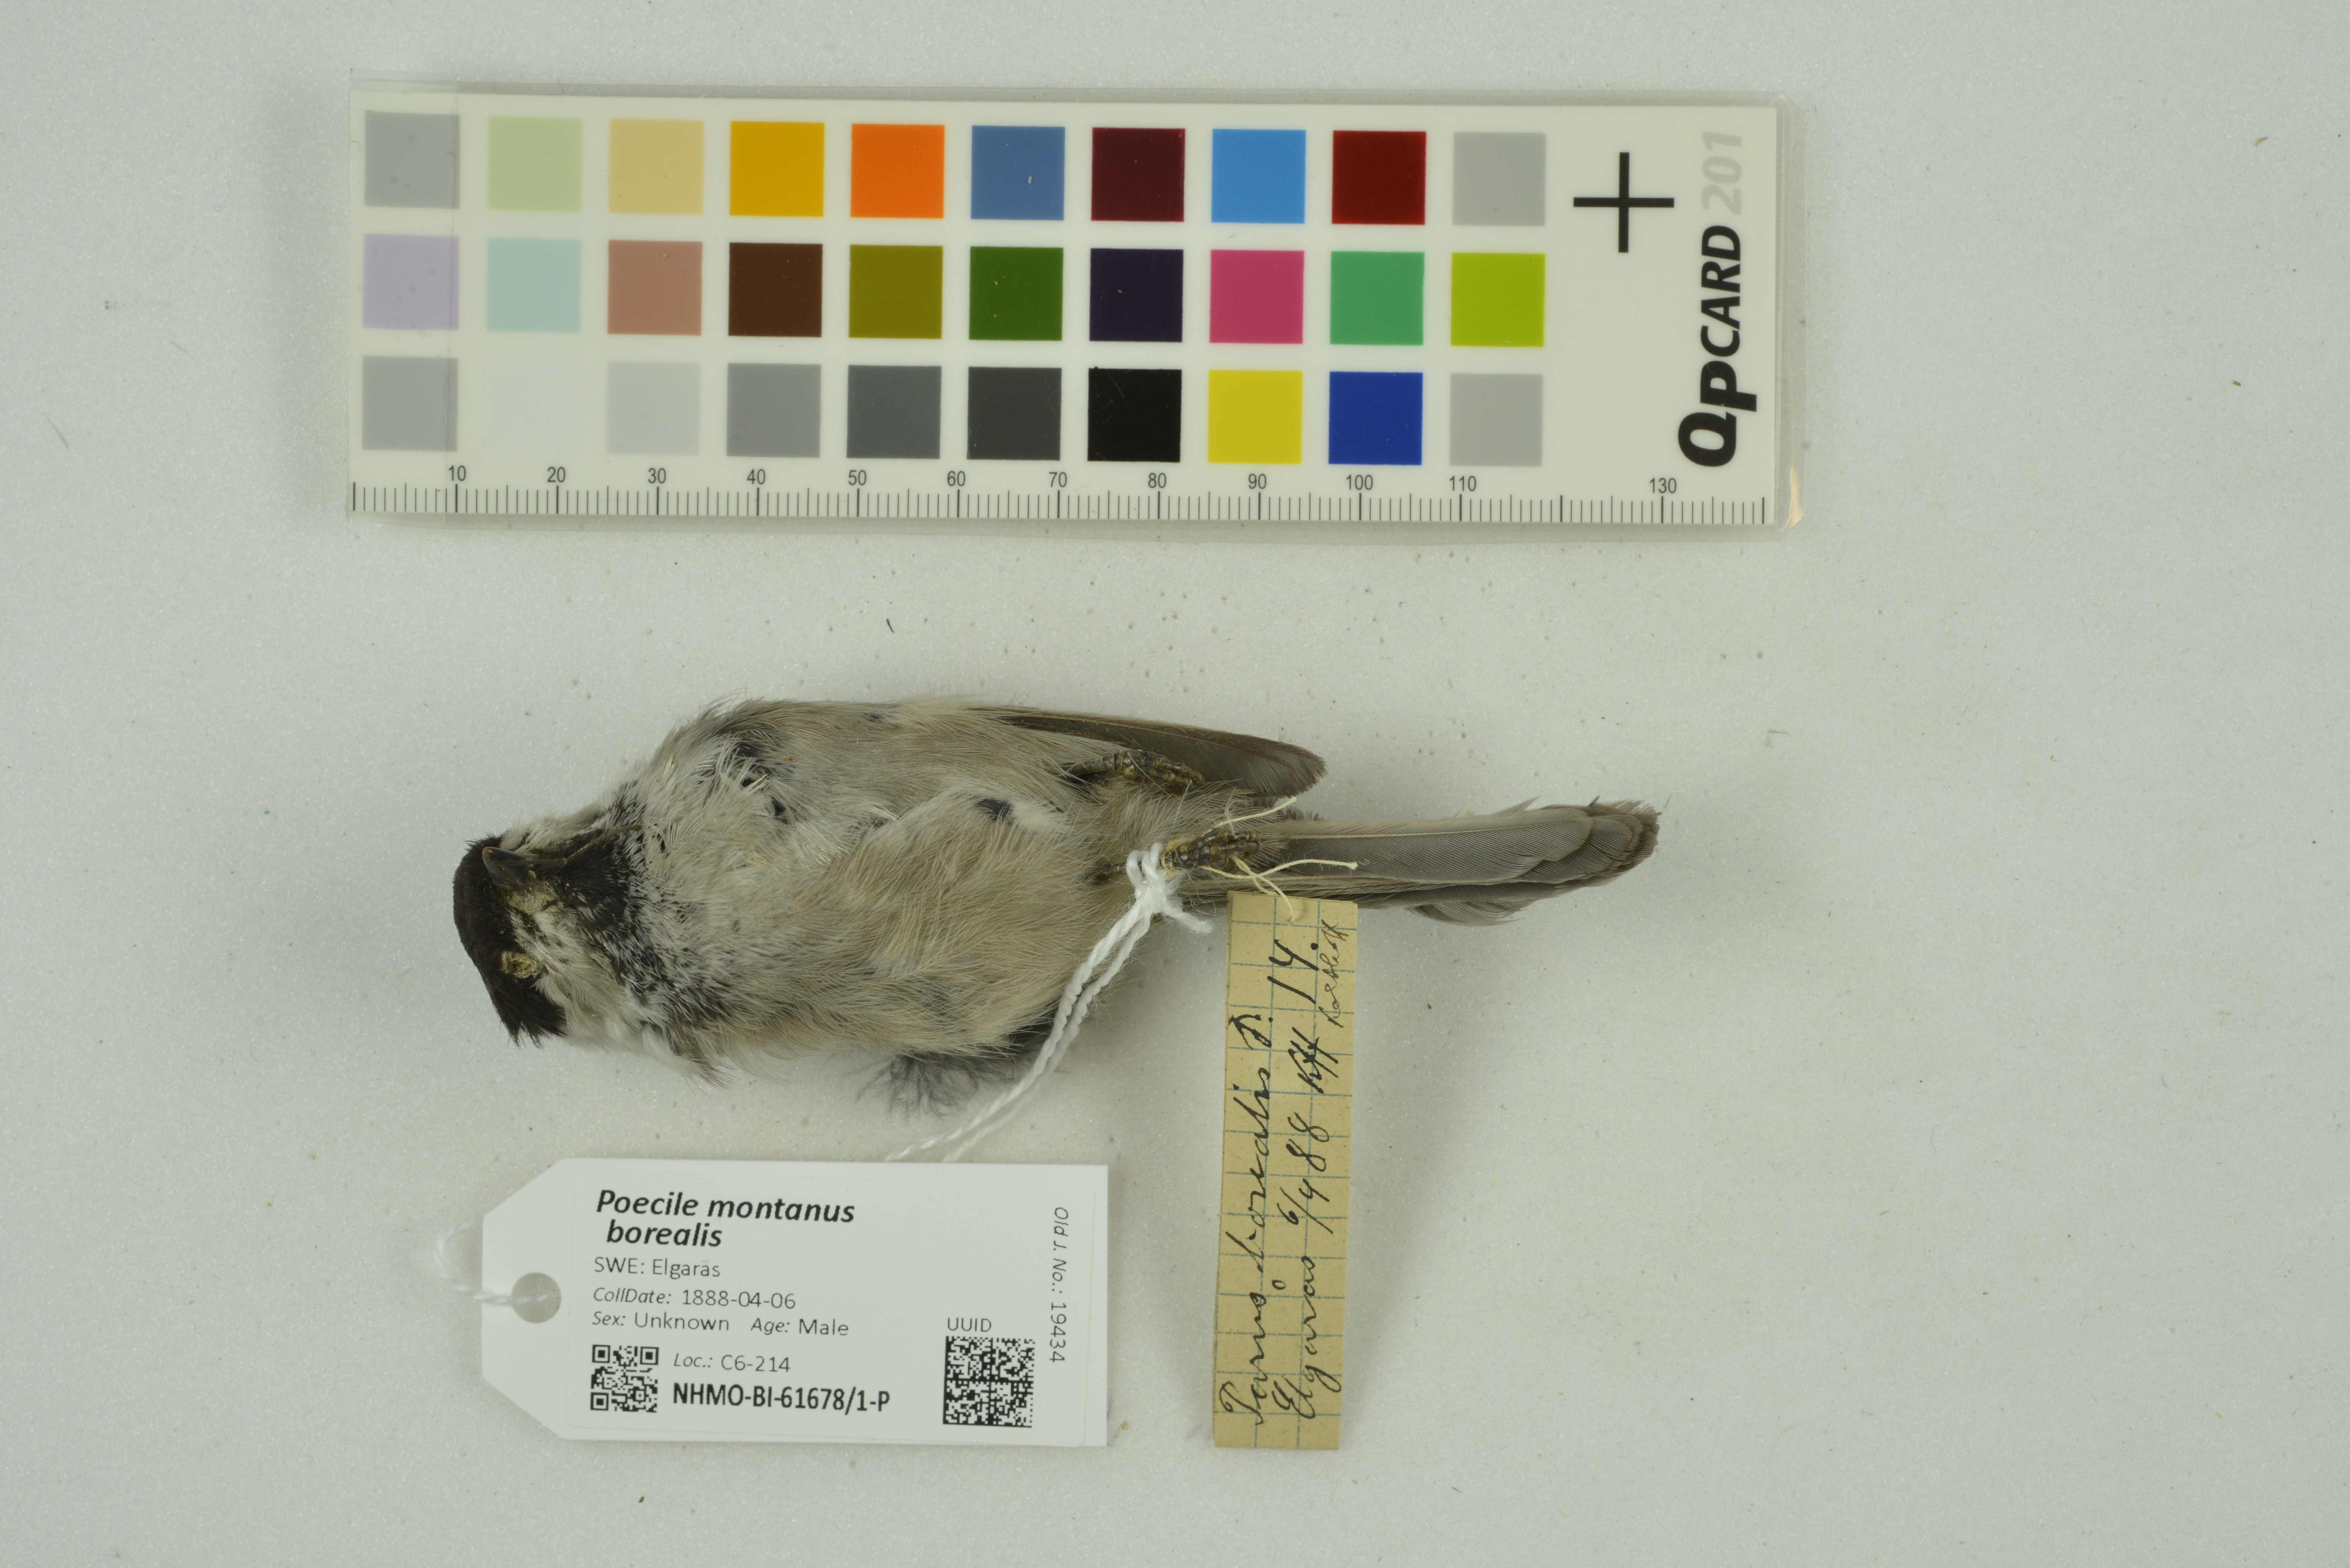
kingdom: Animalia
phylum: Chordata
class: Aves
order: Passeriformes
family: Paridae
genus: Poecile
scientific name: Poecile montanus
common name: Willow tit
